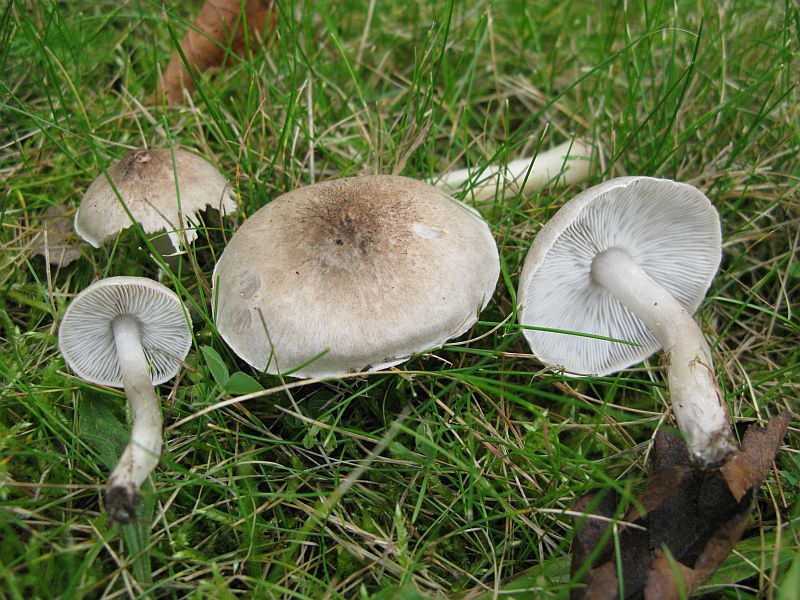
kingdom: Fungi
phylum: Basidiomycota
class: Agaricomycetes
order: Agaricales
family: Tricholomataceae
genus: Tricholoma
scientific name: Tricholoma argyraceum
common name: slør-ridderhat
